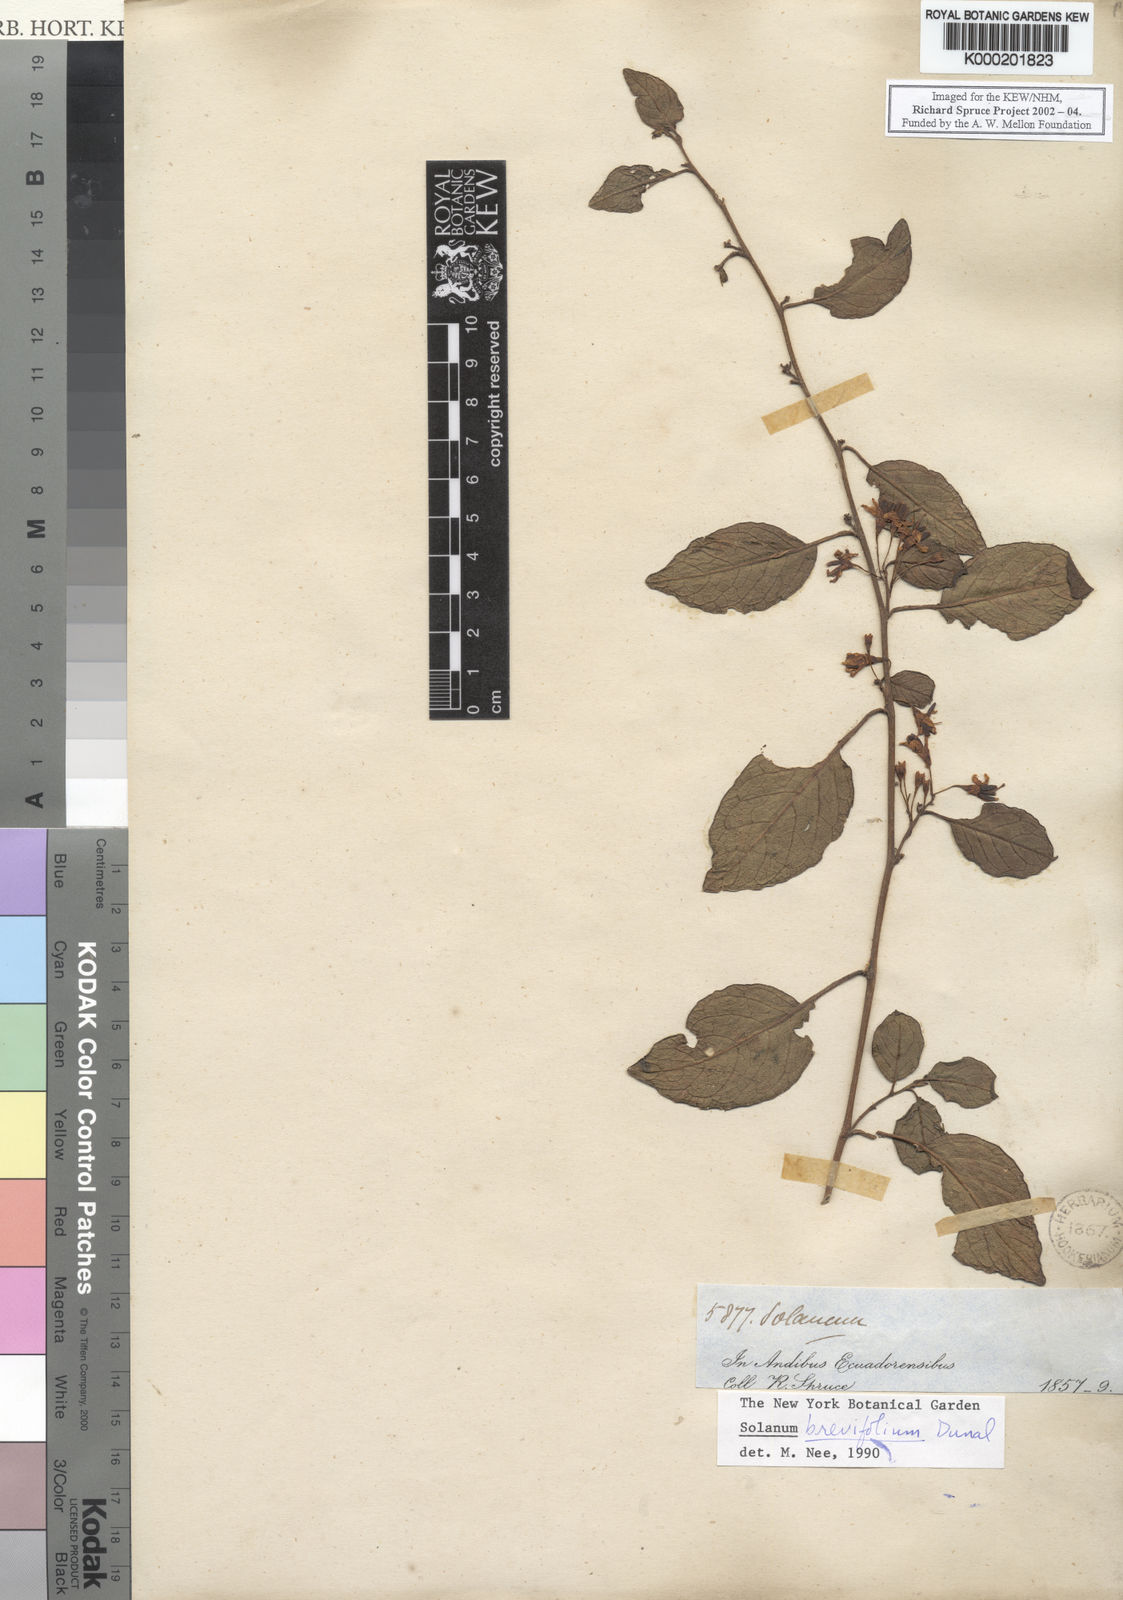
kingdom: Plantae
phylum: Tracheophyta
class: Magnoliopsida
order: Solanales
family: Solanaceae
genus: Solanum
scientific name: Solanum brevifolium
